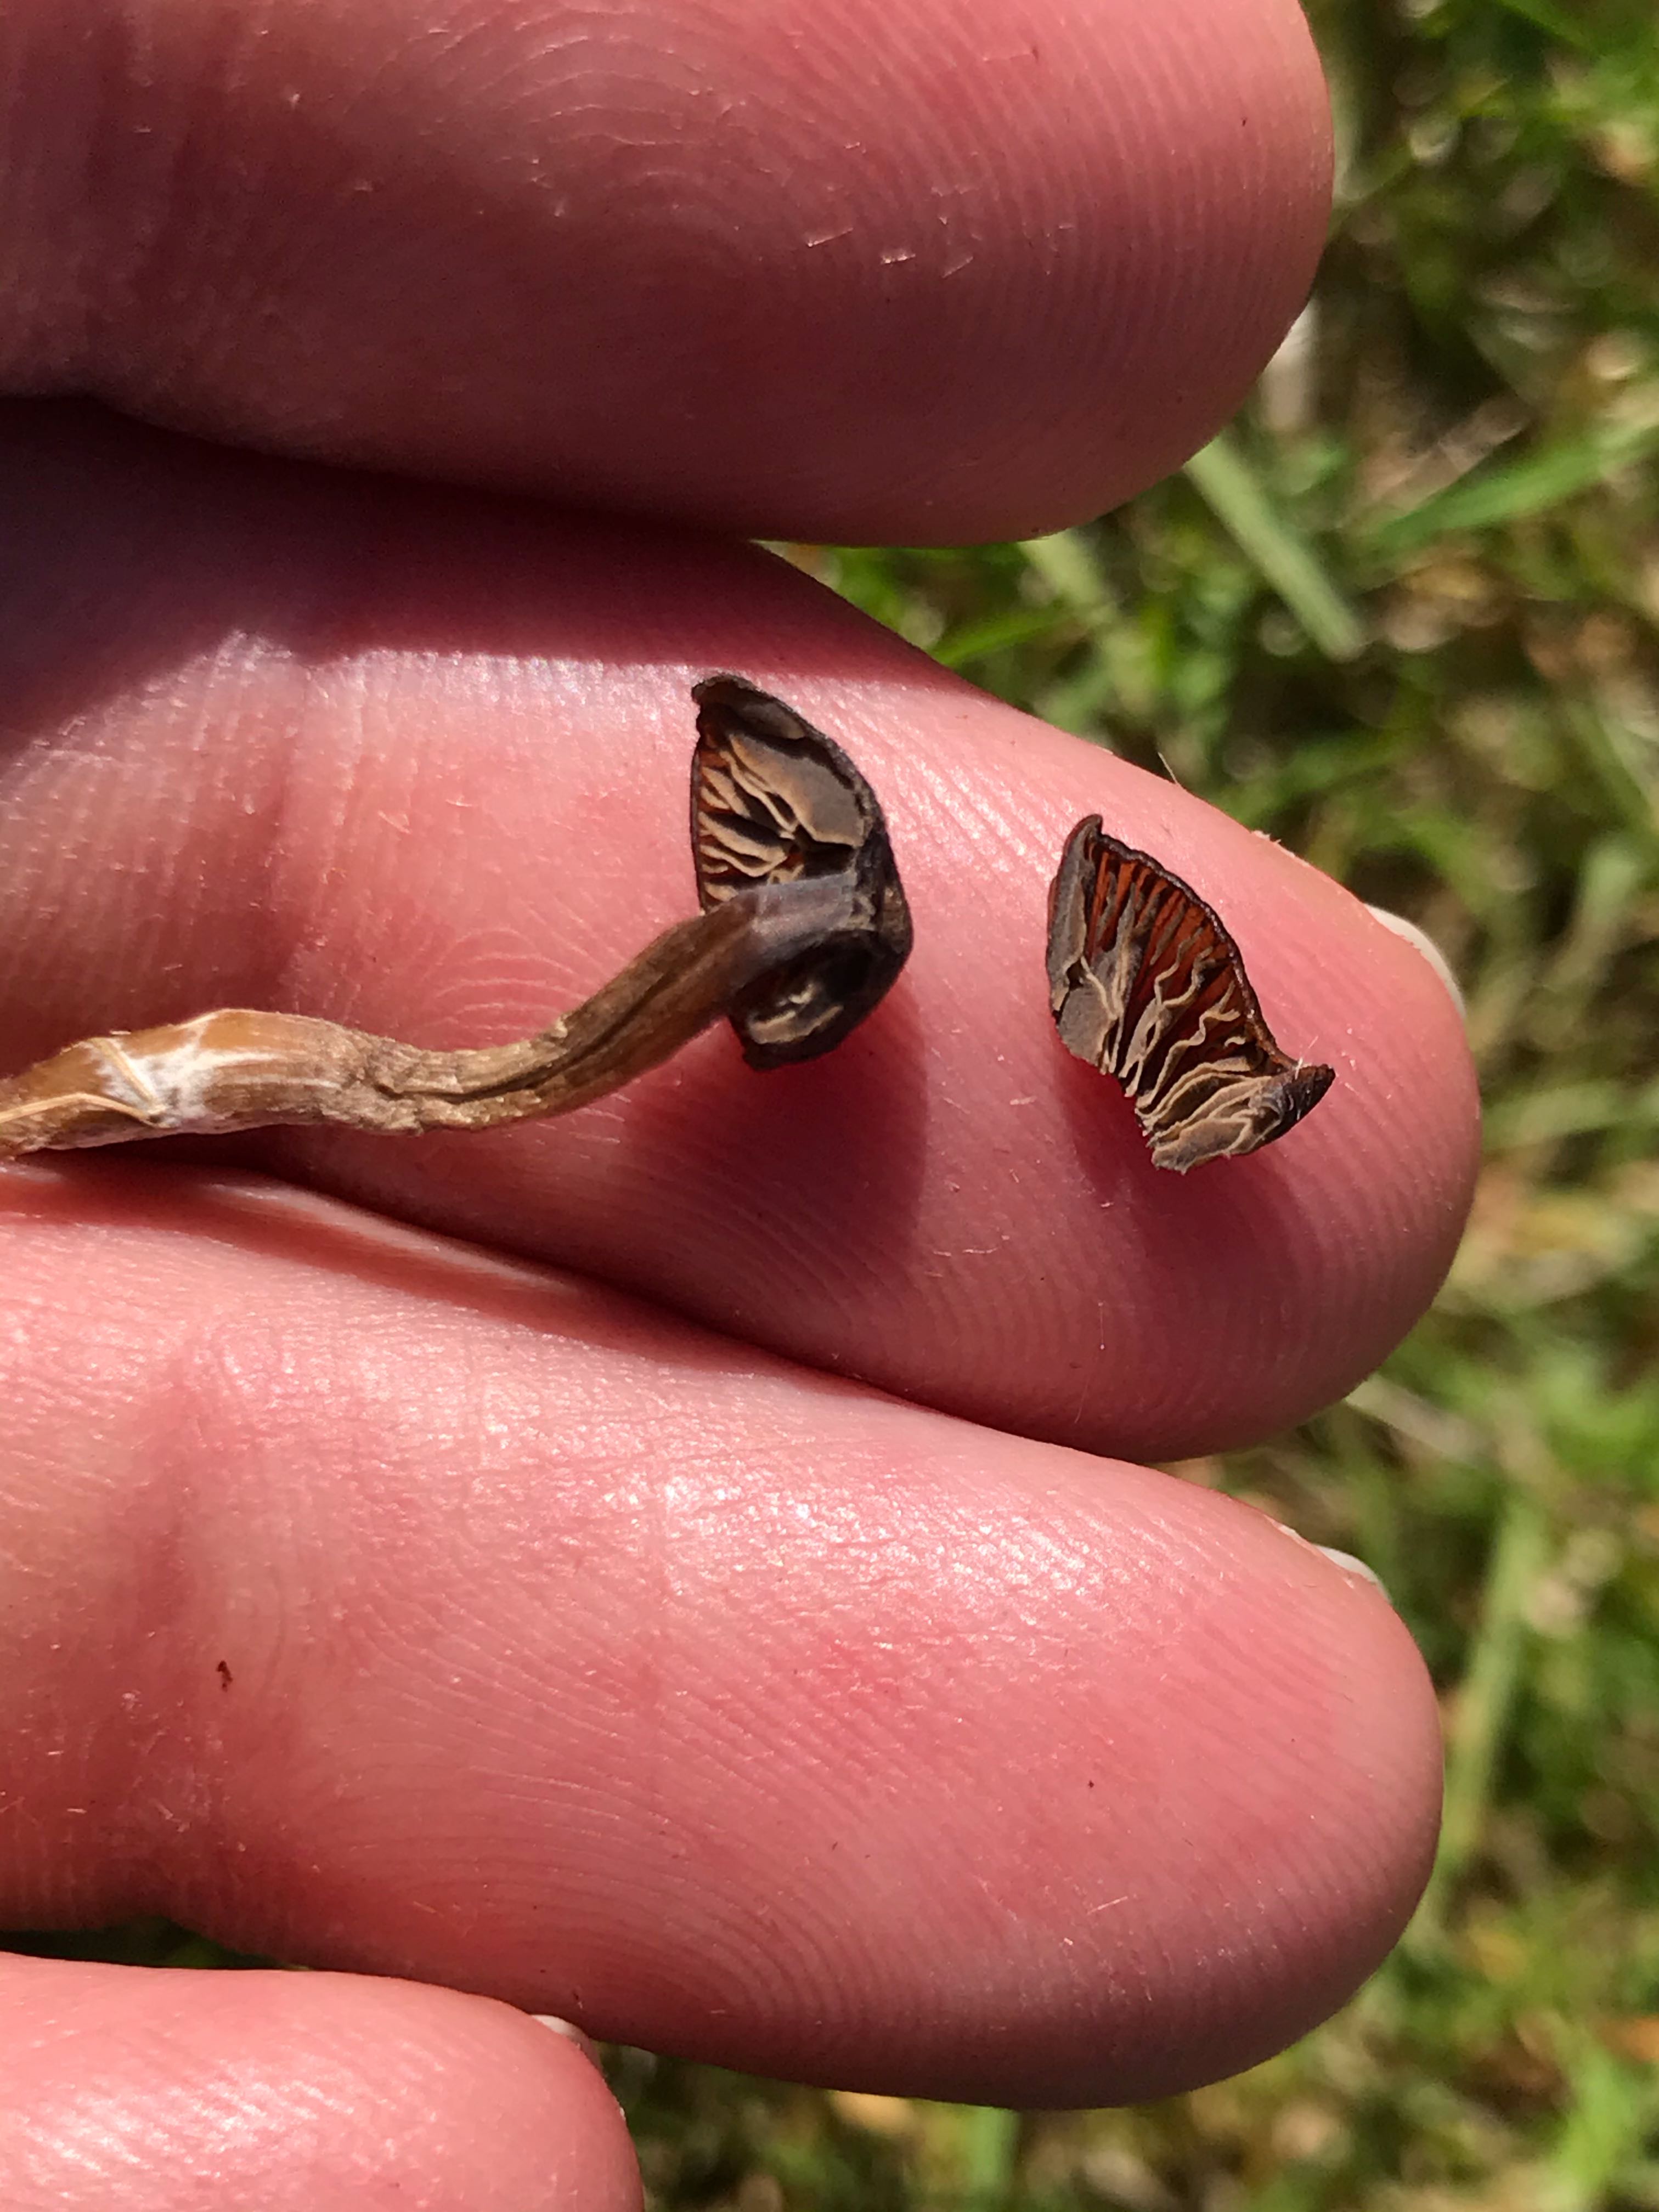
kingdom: Fungi
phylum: Basidiomycota
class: Agaricomycetes
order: Agaricales
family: Entolomataceae
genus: Entoloma
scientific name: Entoloma
